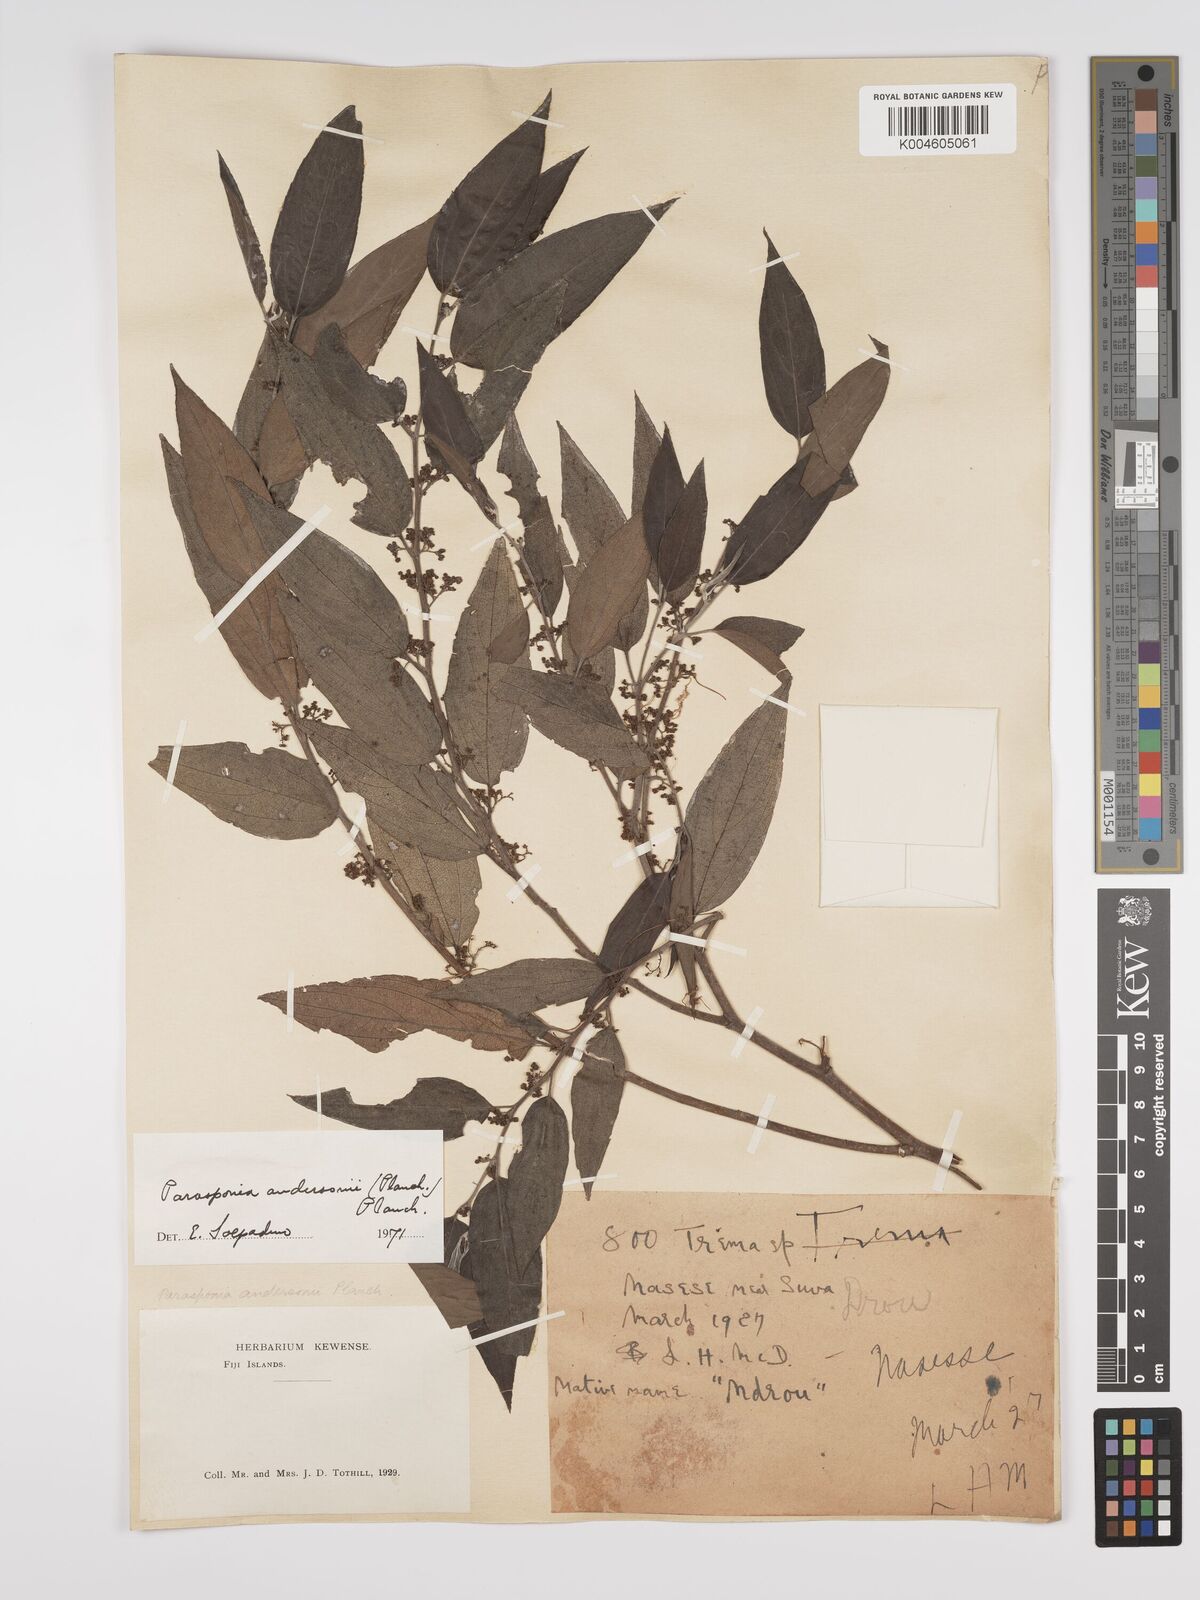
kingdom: Plantae
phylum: Tracheophyta
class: Magnoliopsida
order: Rosales
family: Cannabaceae
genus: Trema
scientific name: Trema andersonii
